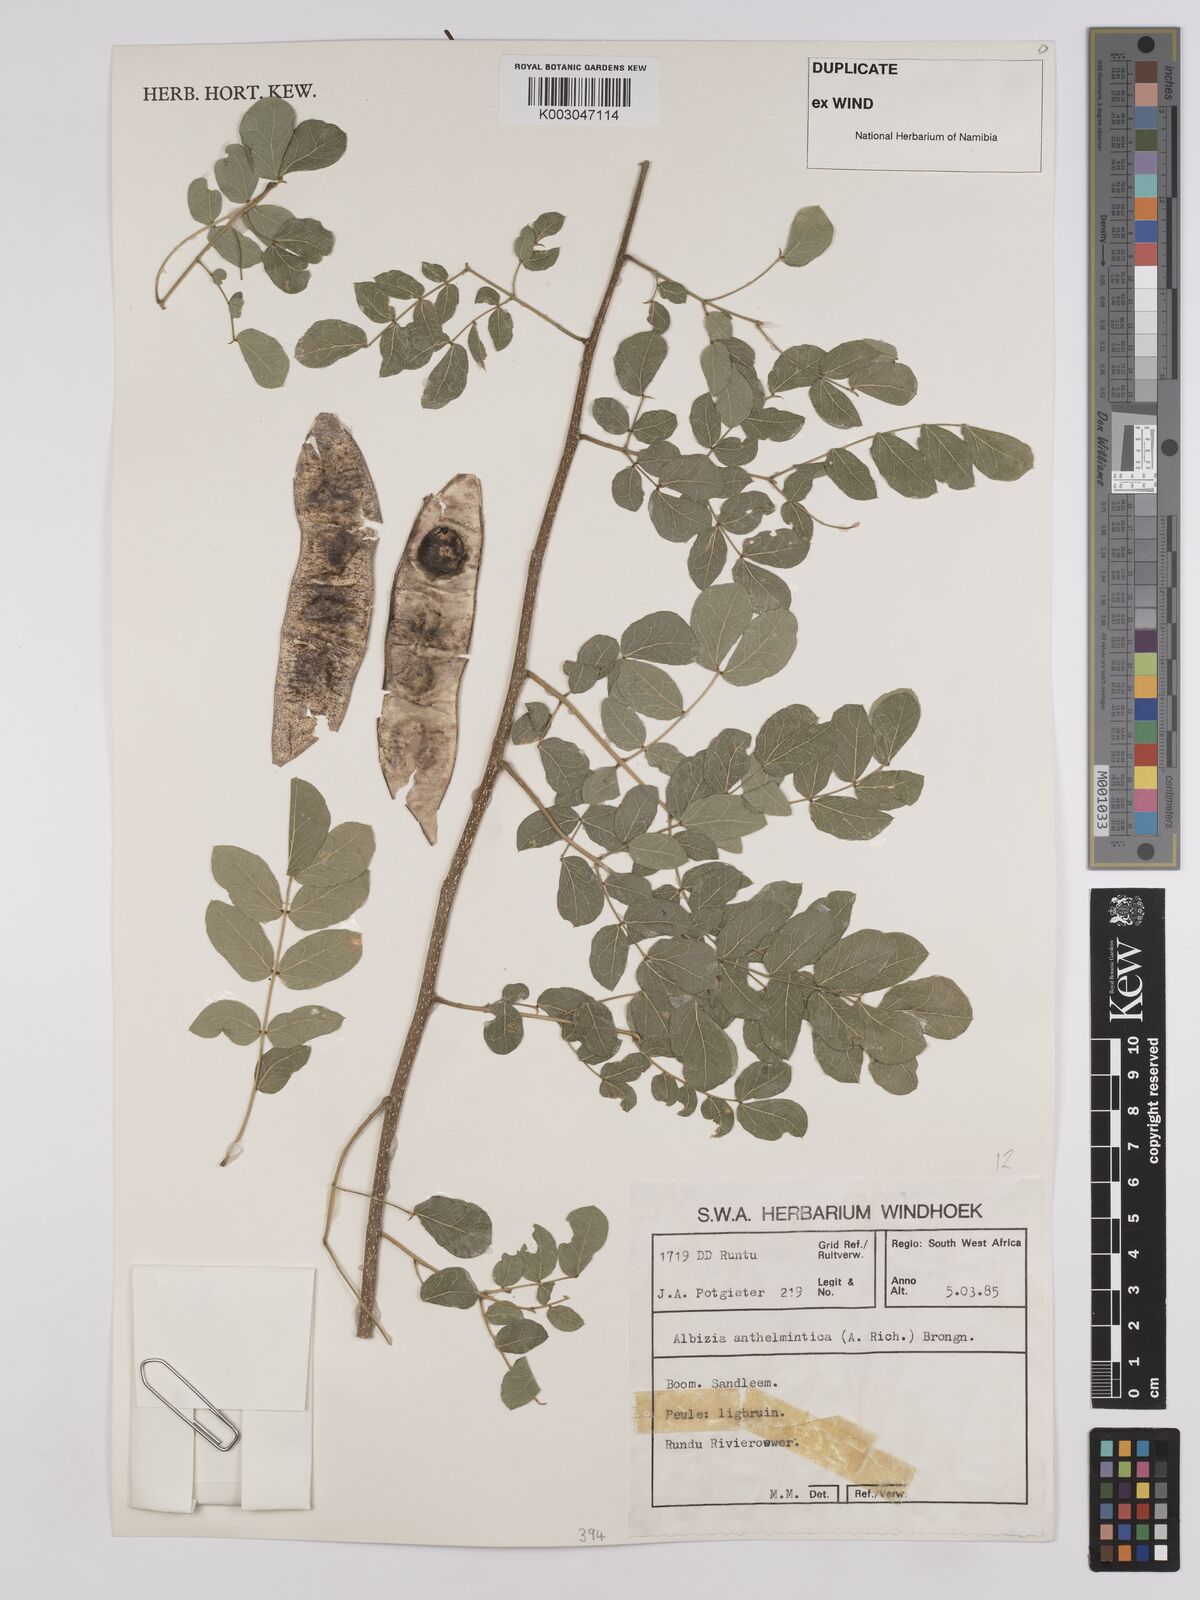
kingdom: Plantae
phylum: Tracheophyta
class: Magnoliopsida
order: Fabales
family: Fabaceae
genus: Albizia
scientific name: Albizia anthelmintica
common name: Worm-bark false-thorn
